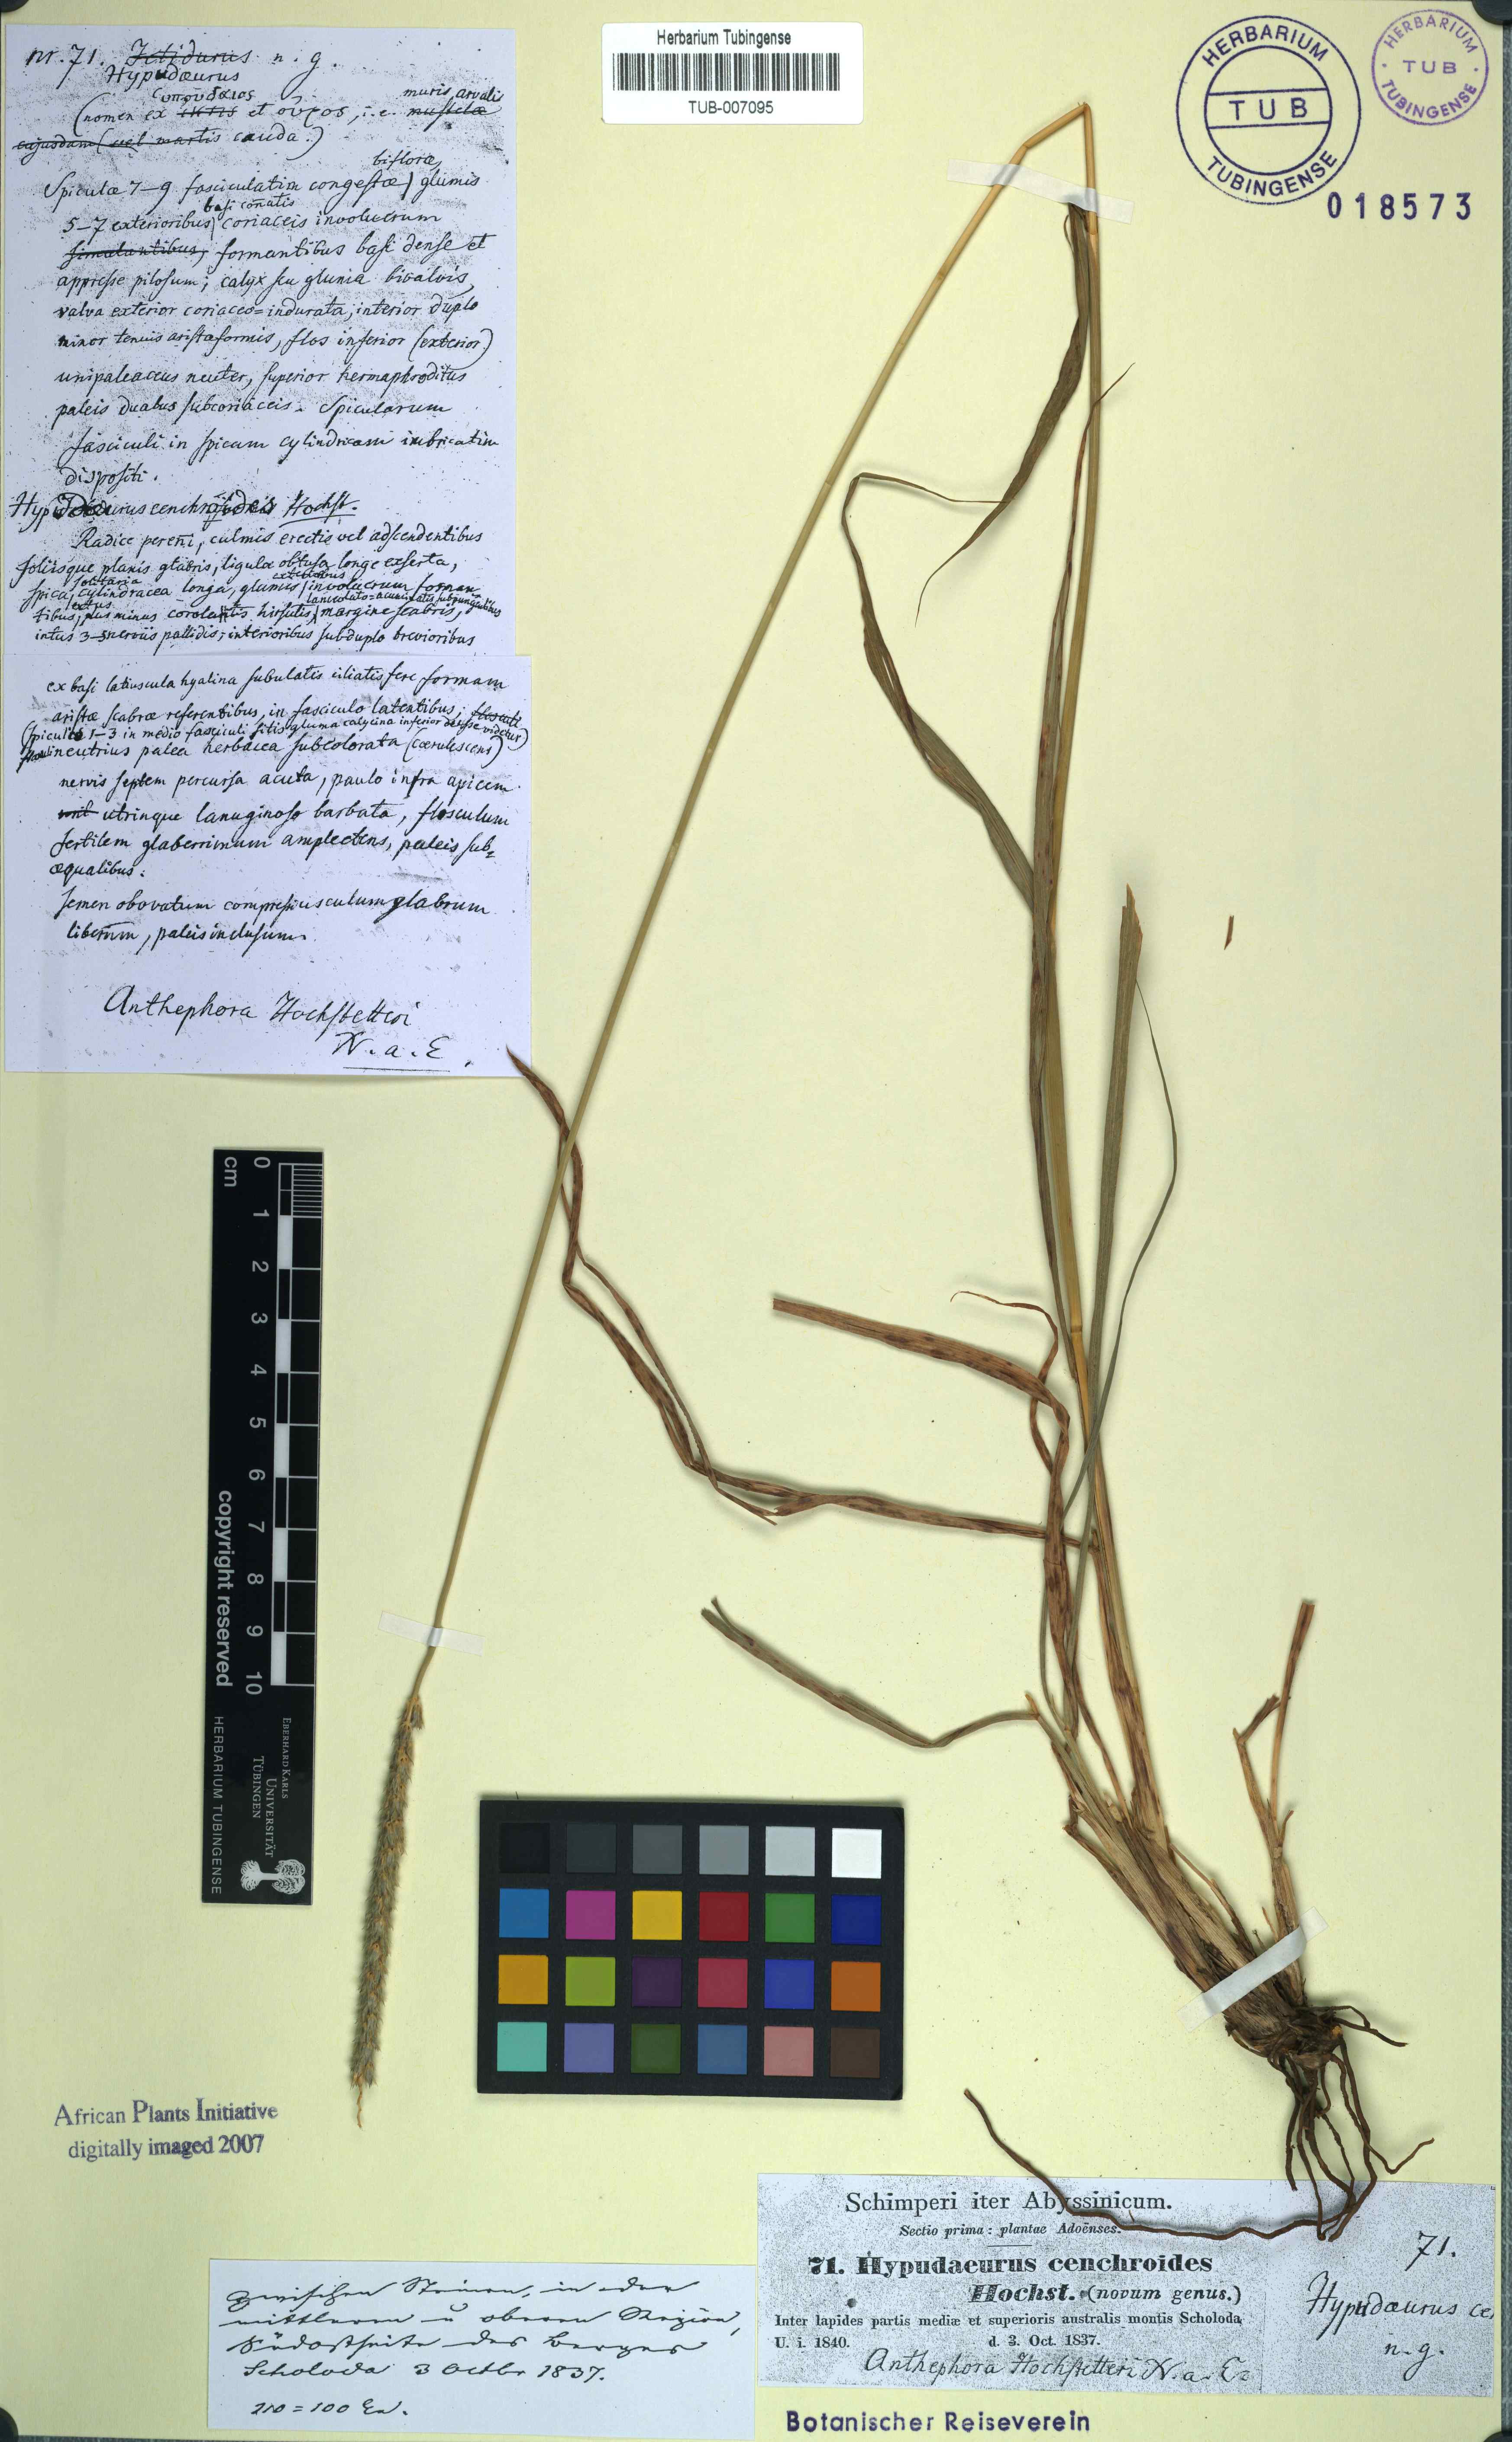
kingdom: Plantae
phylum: Tracheophyta
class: Liliopsida
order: Poales
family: Poaceae
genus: Anthephora
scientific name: Anthephora pubescens
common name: Wool grass
